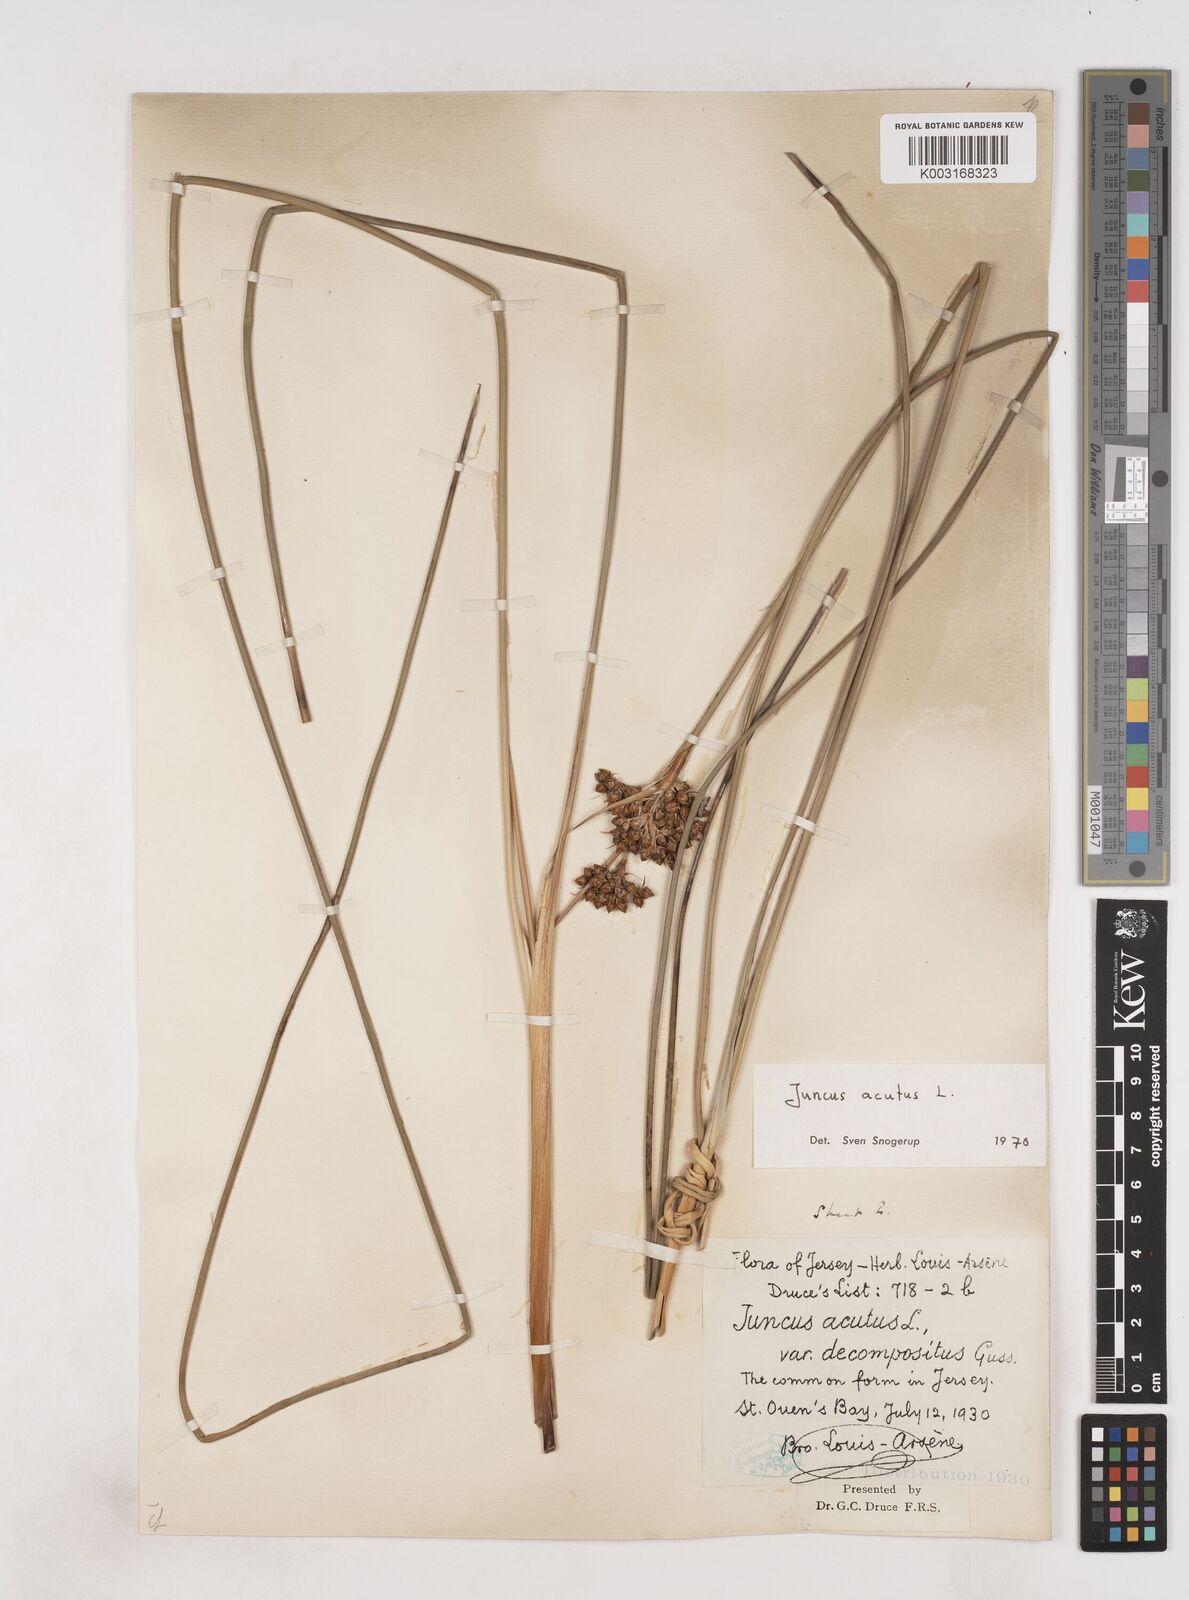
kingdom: Plantae
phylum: Tracheophyta
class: Liliopsida
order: Poales
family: Juncaceae
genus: Juncus
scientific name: Juncus acutus
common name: Sharp rush
